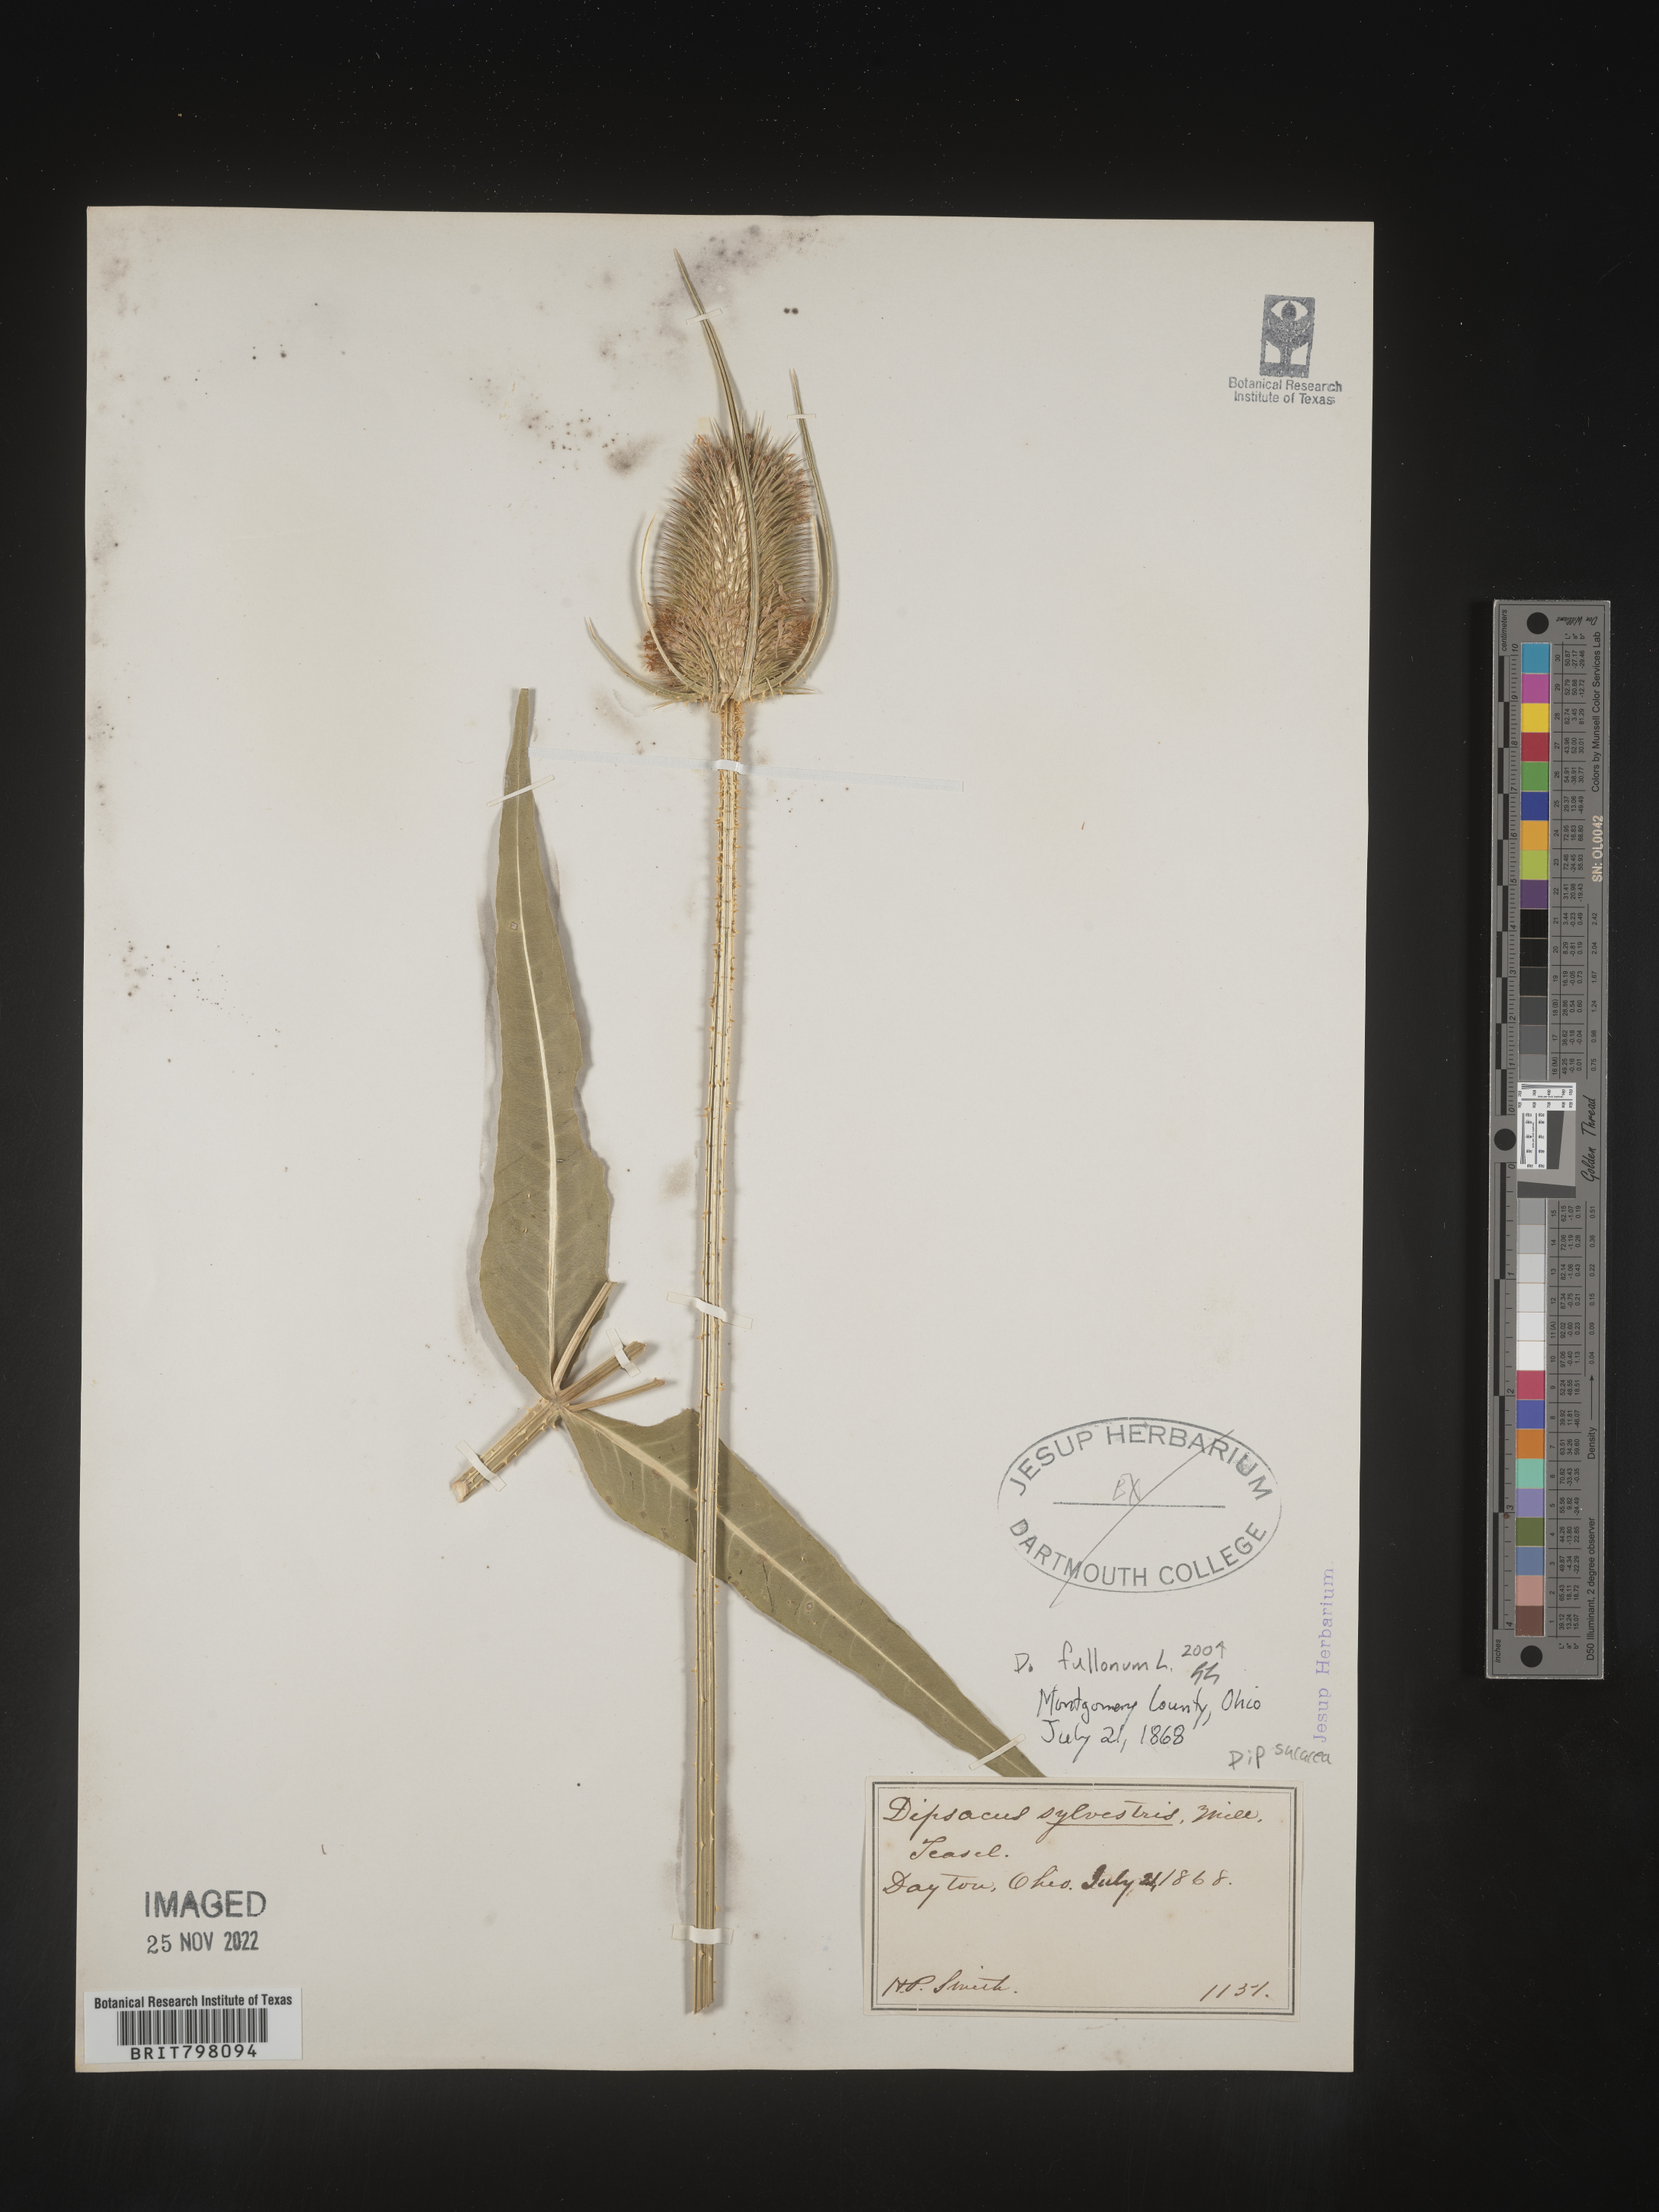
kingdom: Plantae
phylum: Tracheophyta
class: Magnoliopsida
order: Dipsacales
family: Caprifoliaceae
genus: Dipsacus
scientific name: Dipsacus
